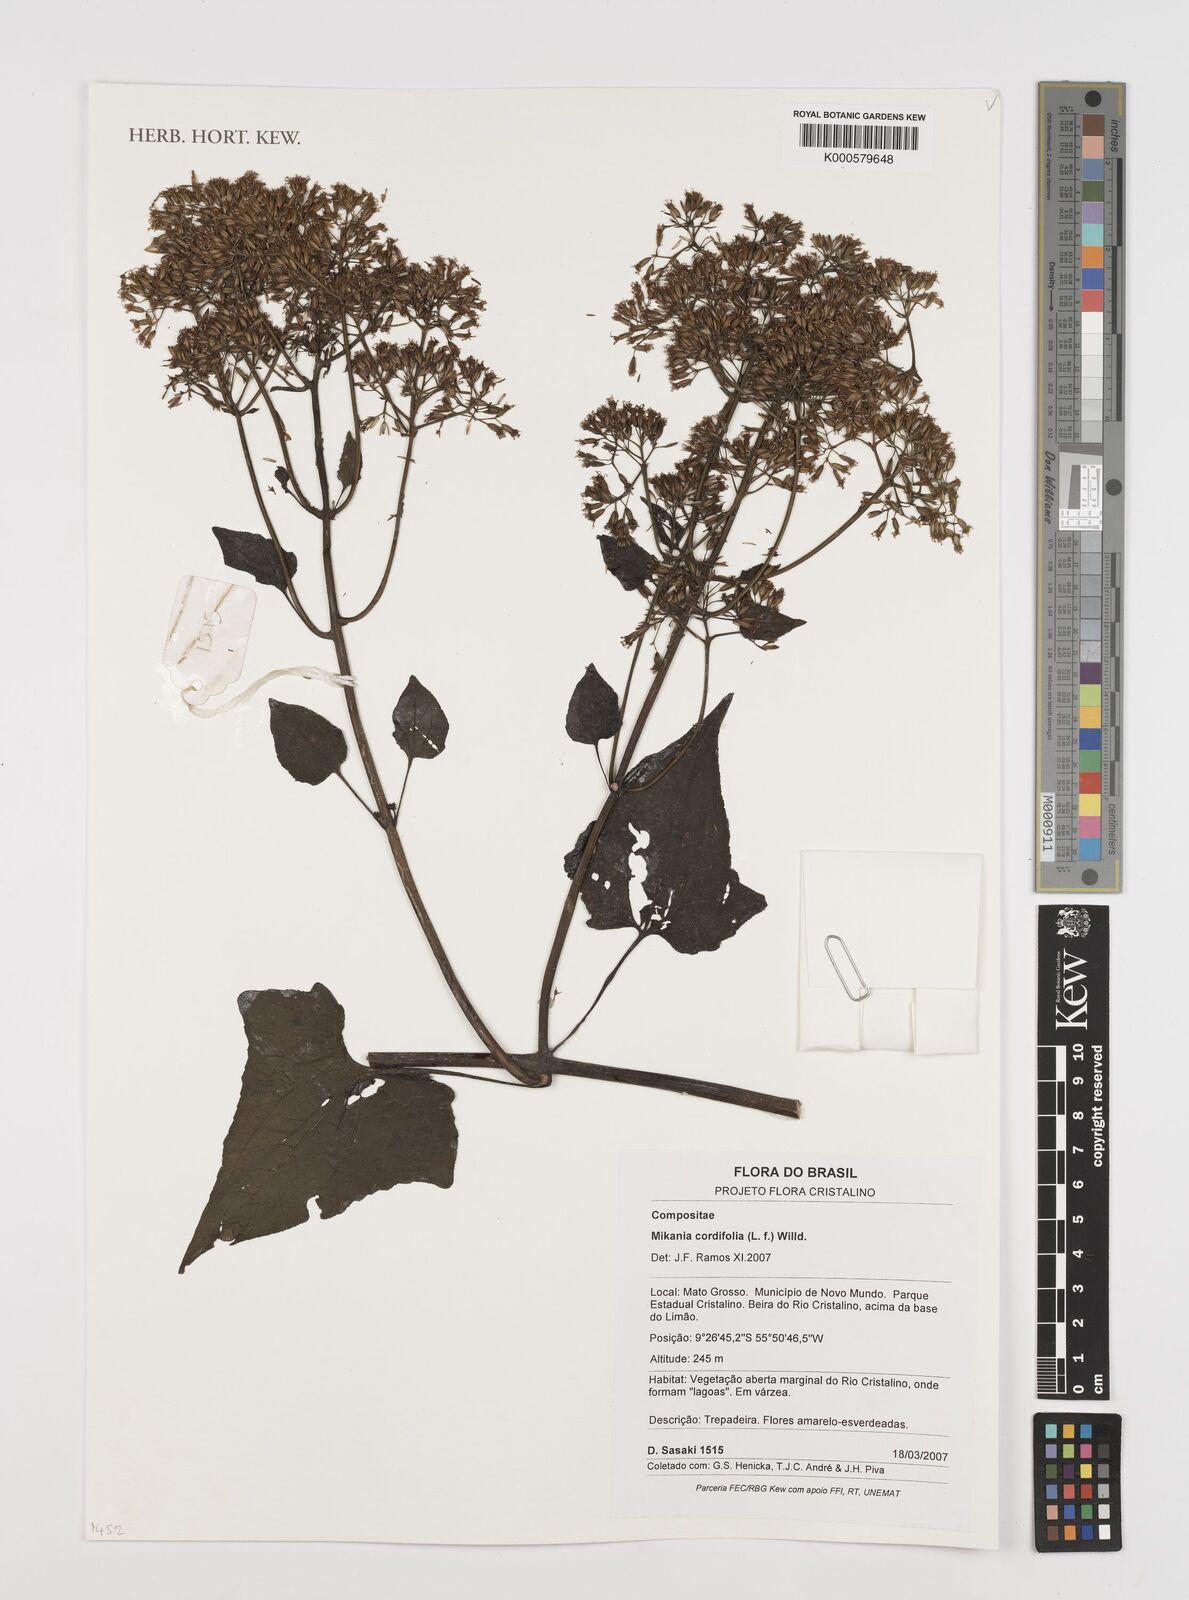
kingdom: Plantae
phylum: Tracheophyta
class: Magnoliopsida
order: Asterales
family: Asteraceae
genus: Mikania
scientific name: Mikania cordifolia
